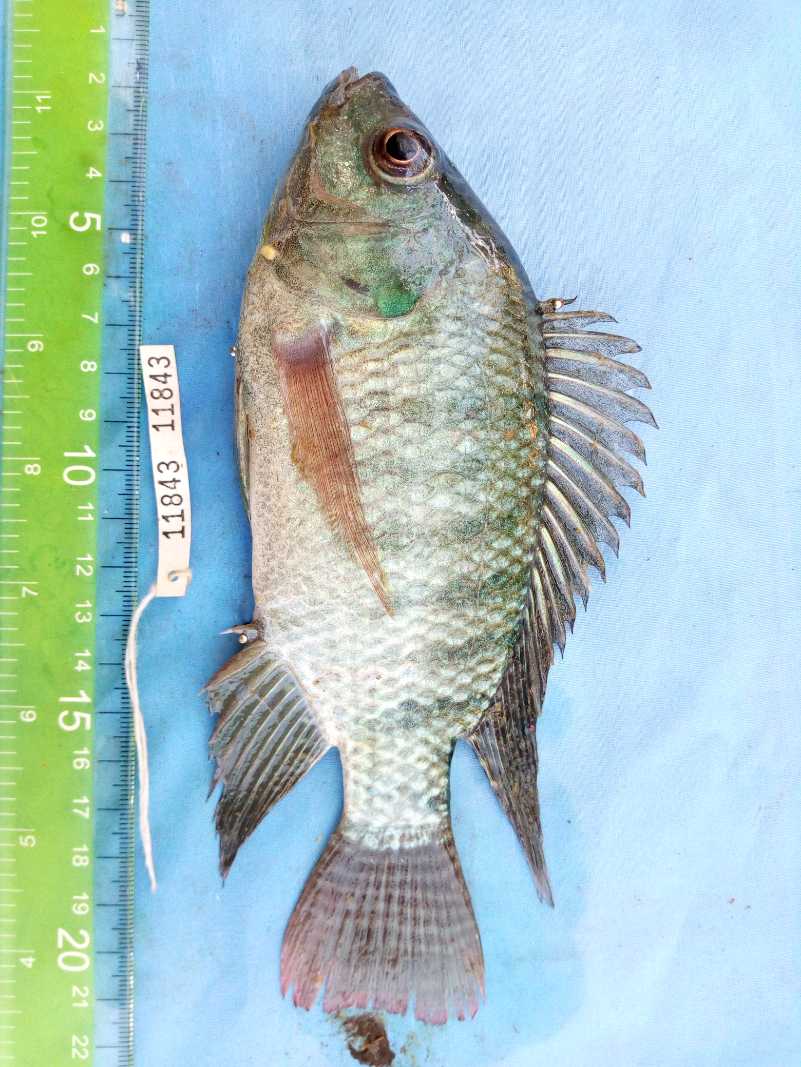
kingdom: Animalia
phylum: Chordata
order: Perciformes
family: Cichlidae
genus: Oreochromis
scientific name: Oreochromis niloticus
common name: Nile tilapia
